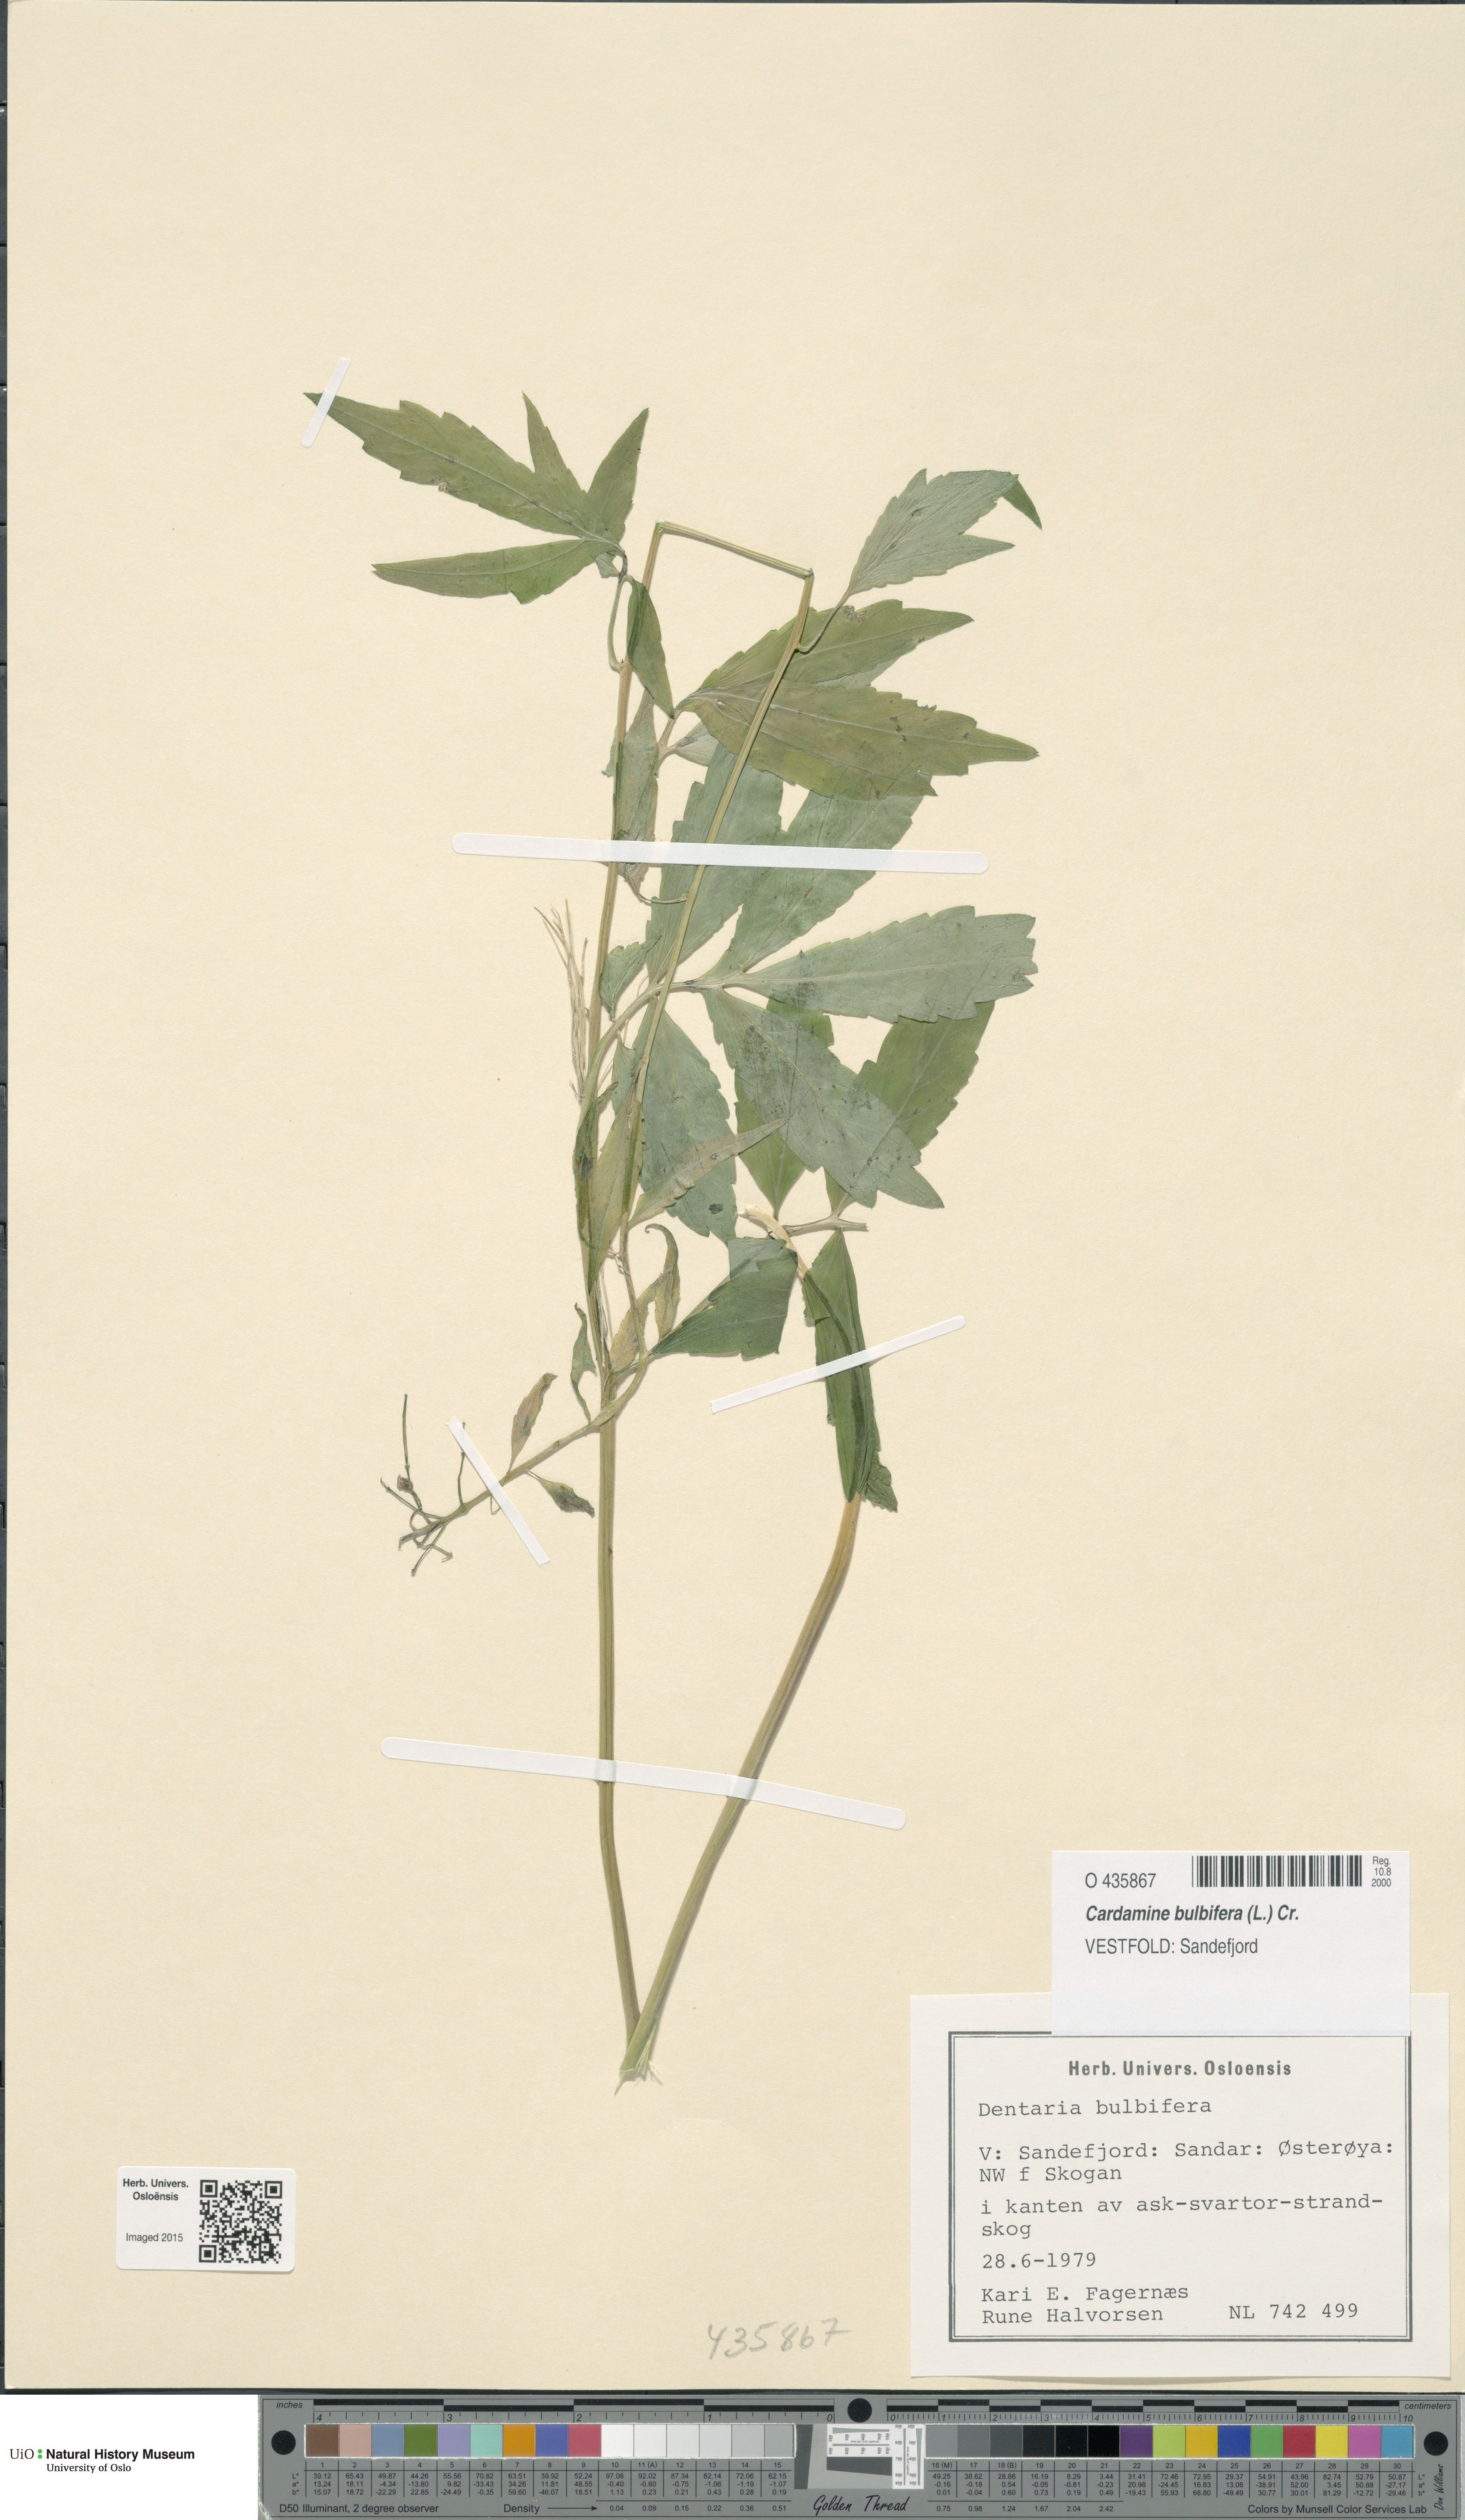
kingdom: Plantae
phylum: Tracheophyta
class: Magnoliopsida
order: Brassicales
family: Brassicaceae
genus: Cardamine
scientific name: Cardamine bulbifera
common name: Coralroot bittercress
